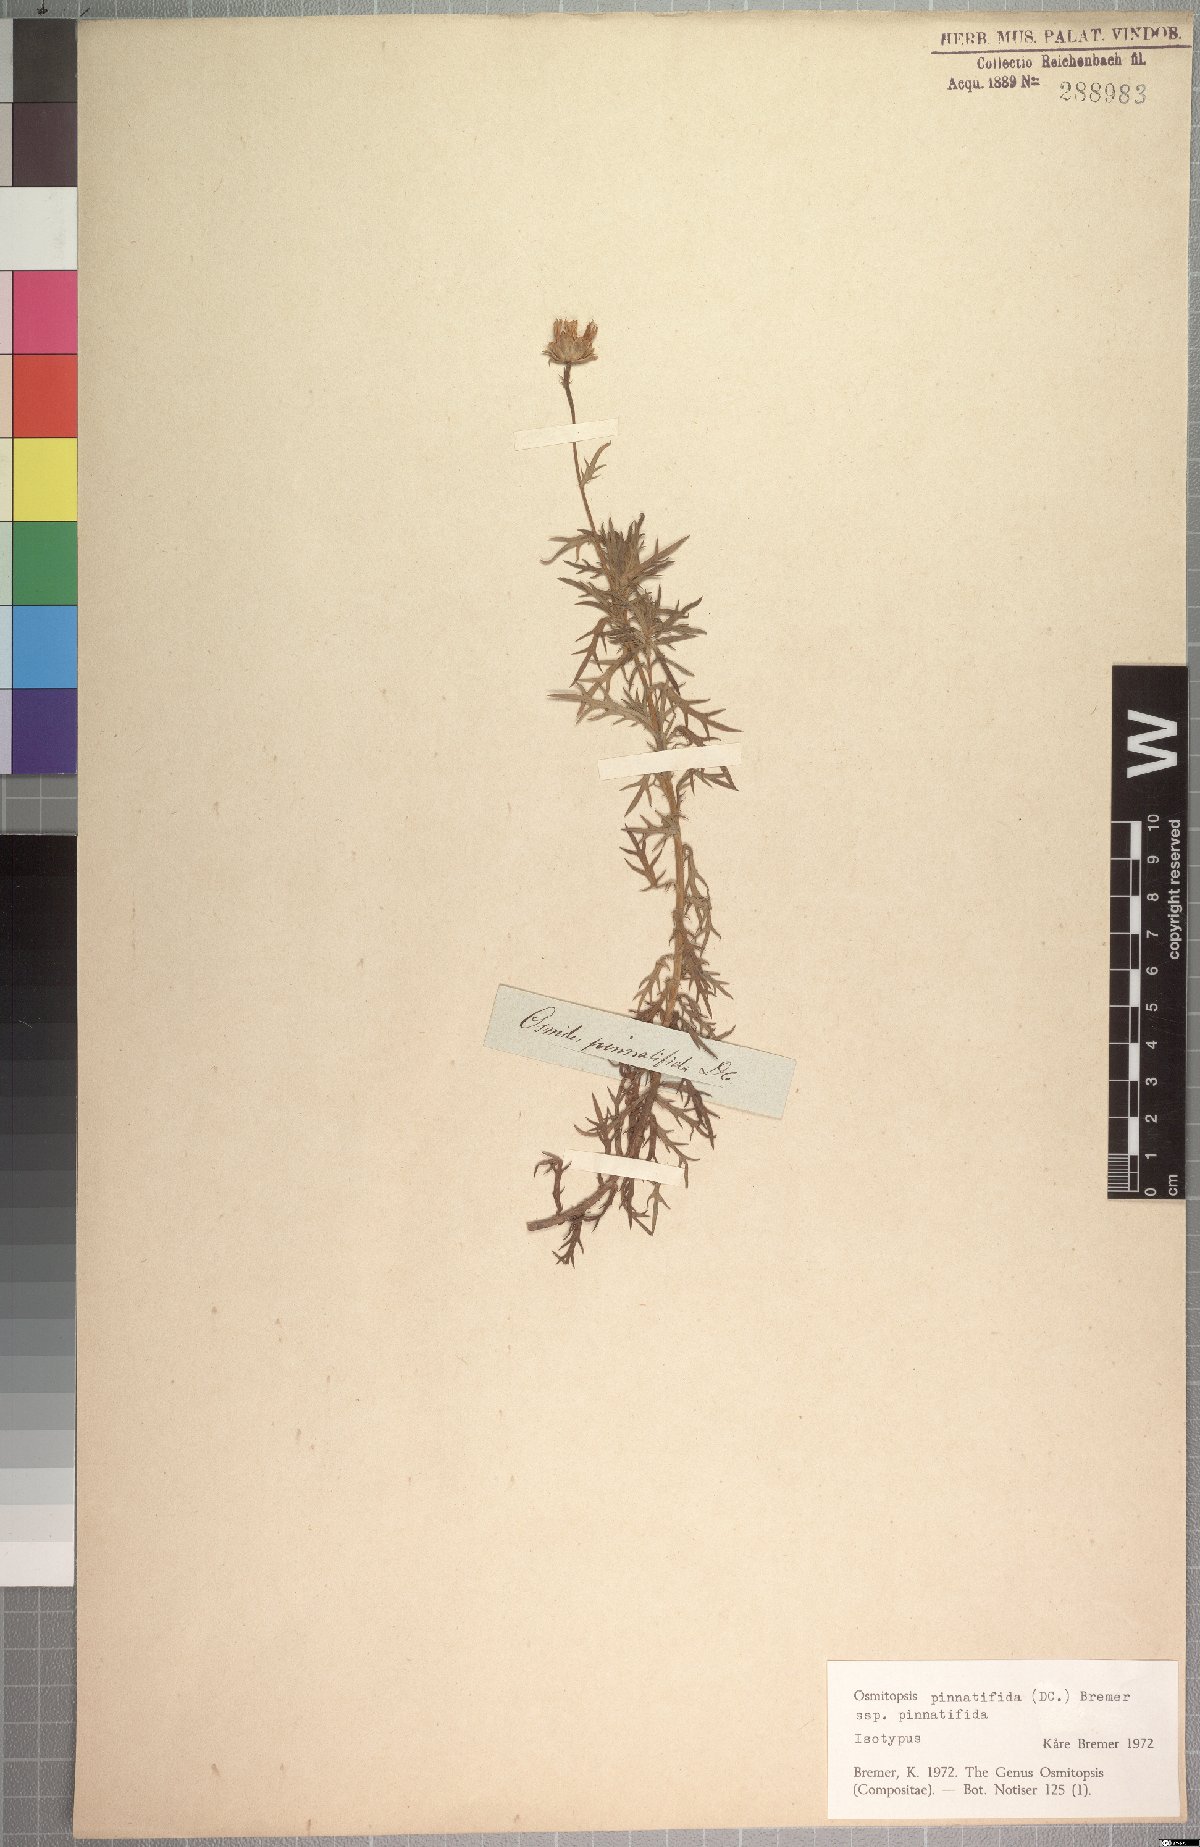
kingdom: Plantae
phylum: Tracheophyta
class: Magnoliopsida
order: Asterales
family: Asteraceae
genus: Osmitopsis
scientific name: Osmitopsis pinnatifida
